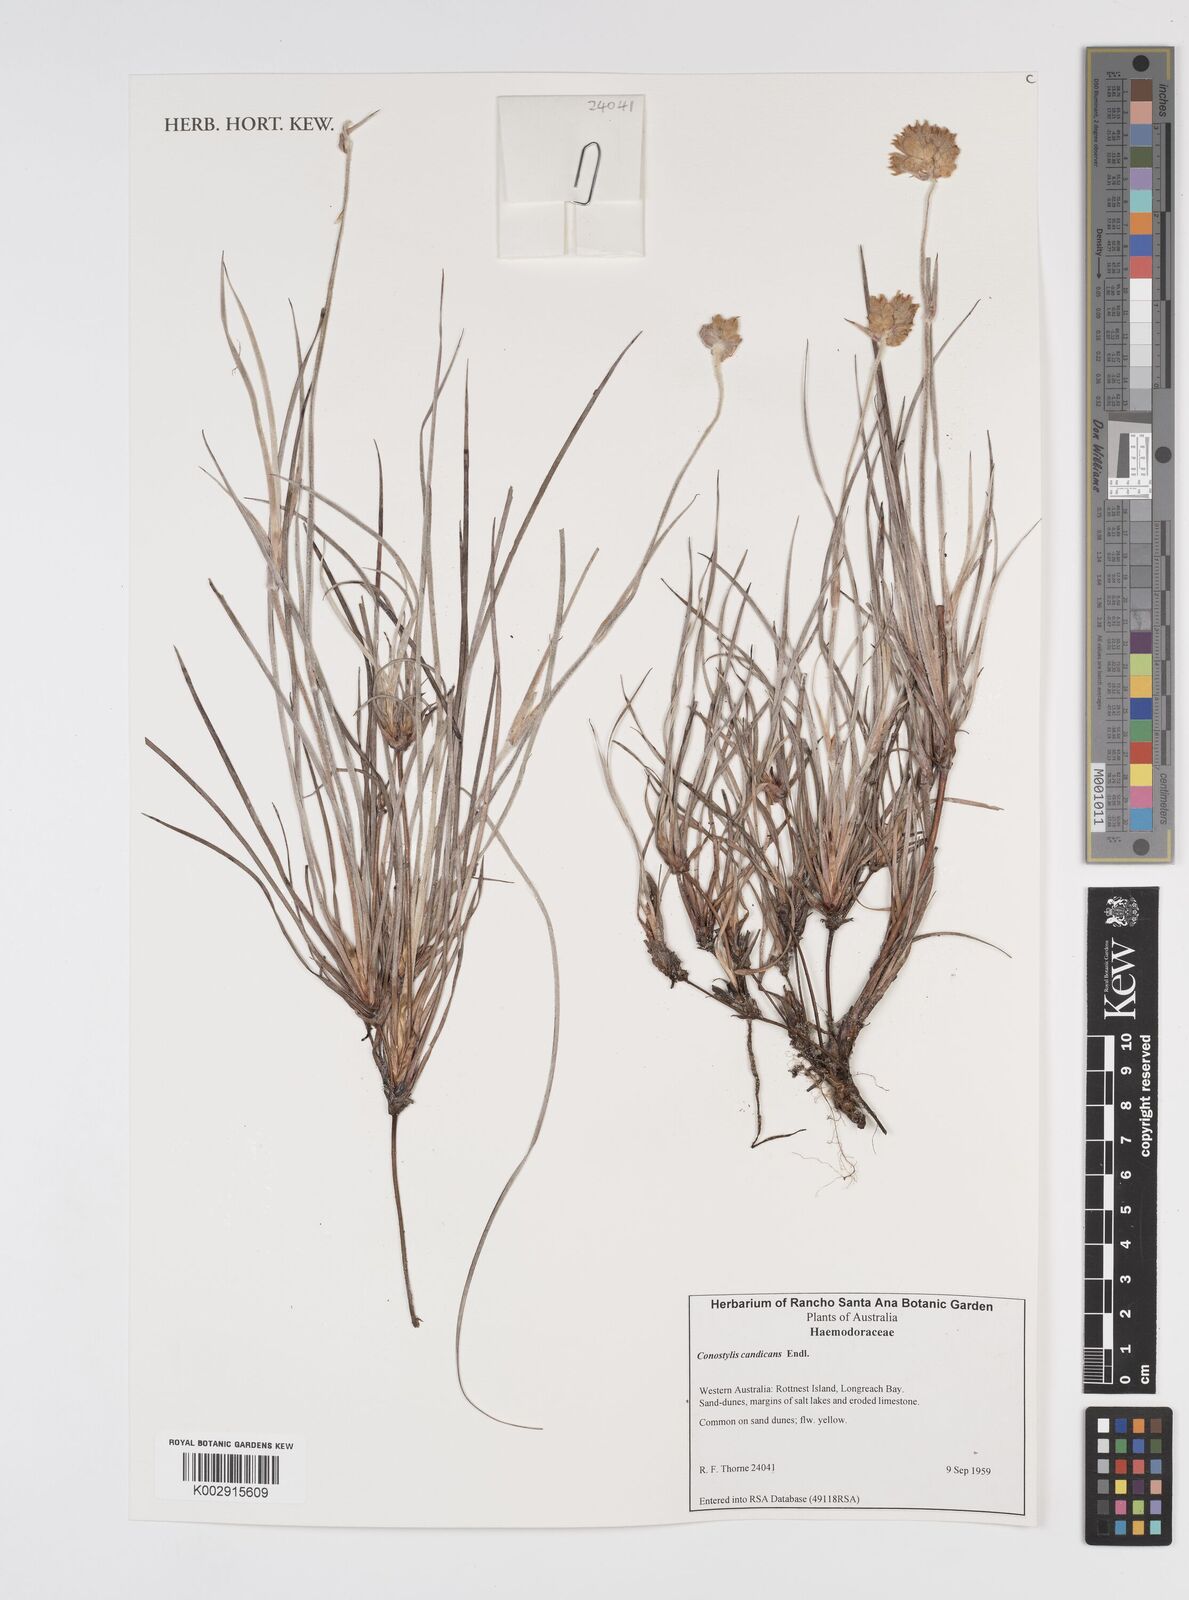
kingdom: Plantae
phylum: Tracheophyta
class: Liliopsida
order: Commelinales
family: Haemodoraceae
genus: Conostylis
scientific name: Conostylis candicans
